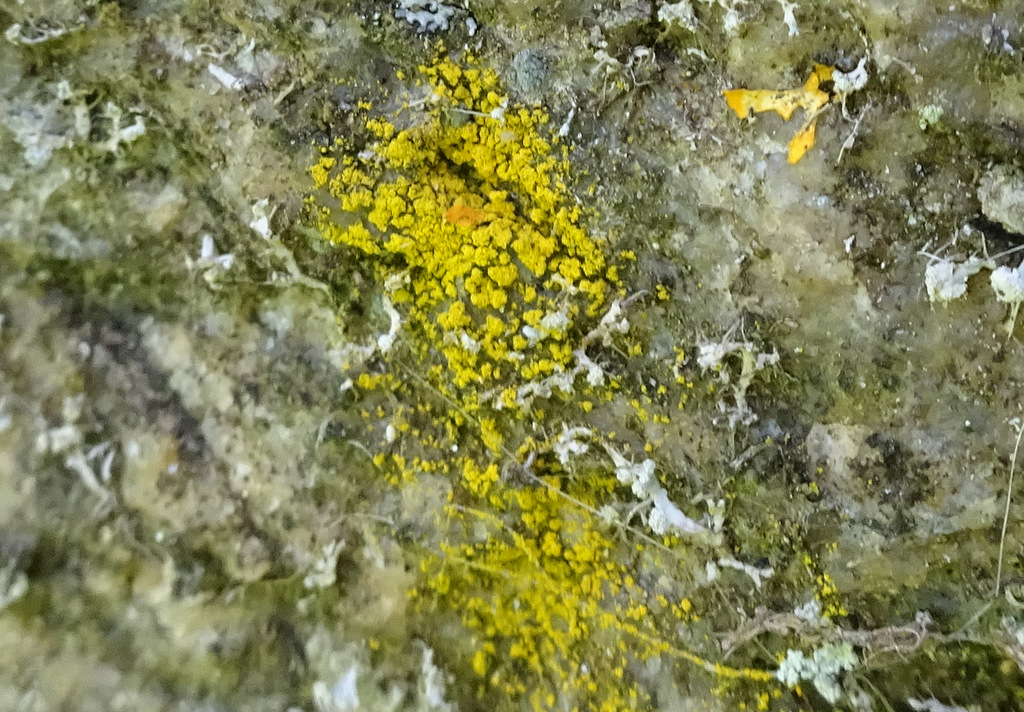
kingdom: Fungi
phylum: Ascomycota
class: Lecanoromycetes
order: Lecanorales
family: Parmeliaceae
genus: Lichen
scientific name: Lichen
